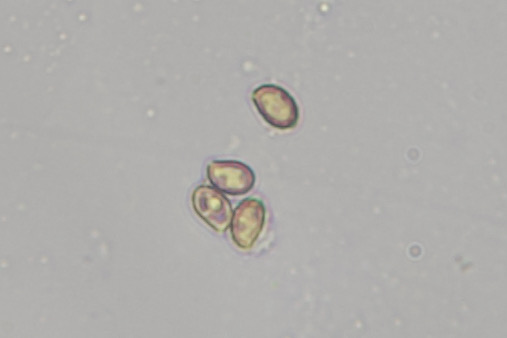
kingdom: Fungi
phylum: Basidiomycota
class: Agaricomycetes
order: Agaricales
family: Cortinariaceae
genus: Cortinarius
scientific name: Cortinarius
